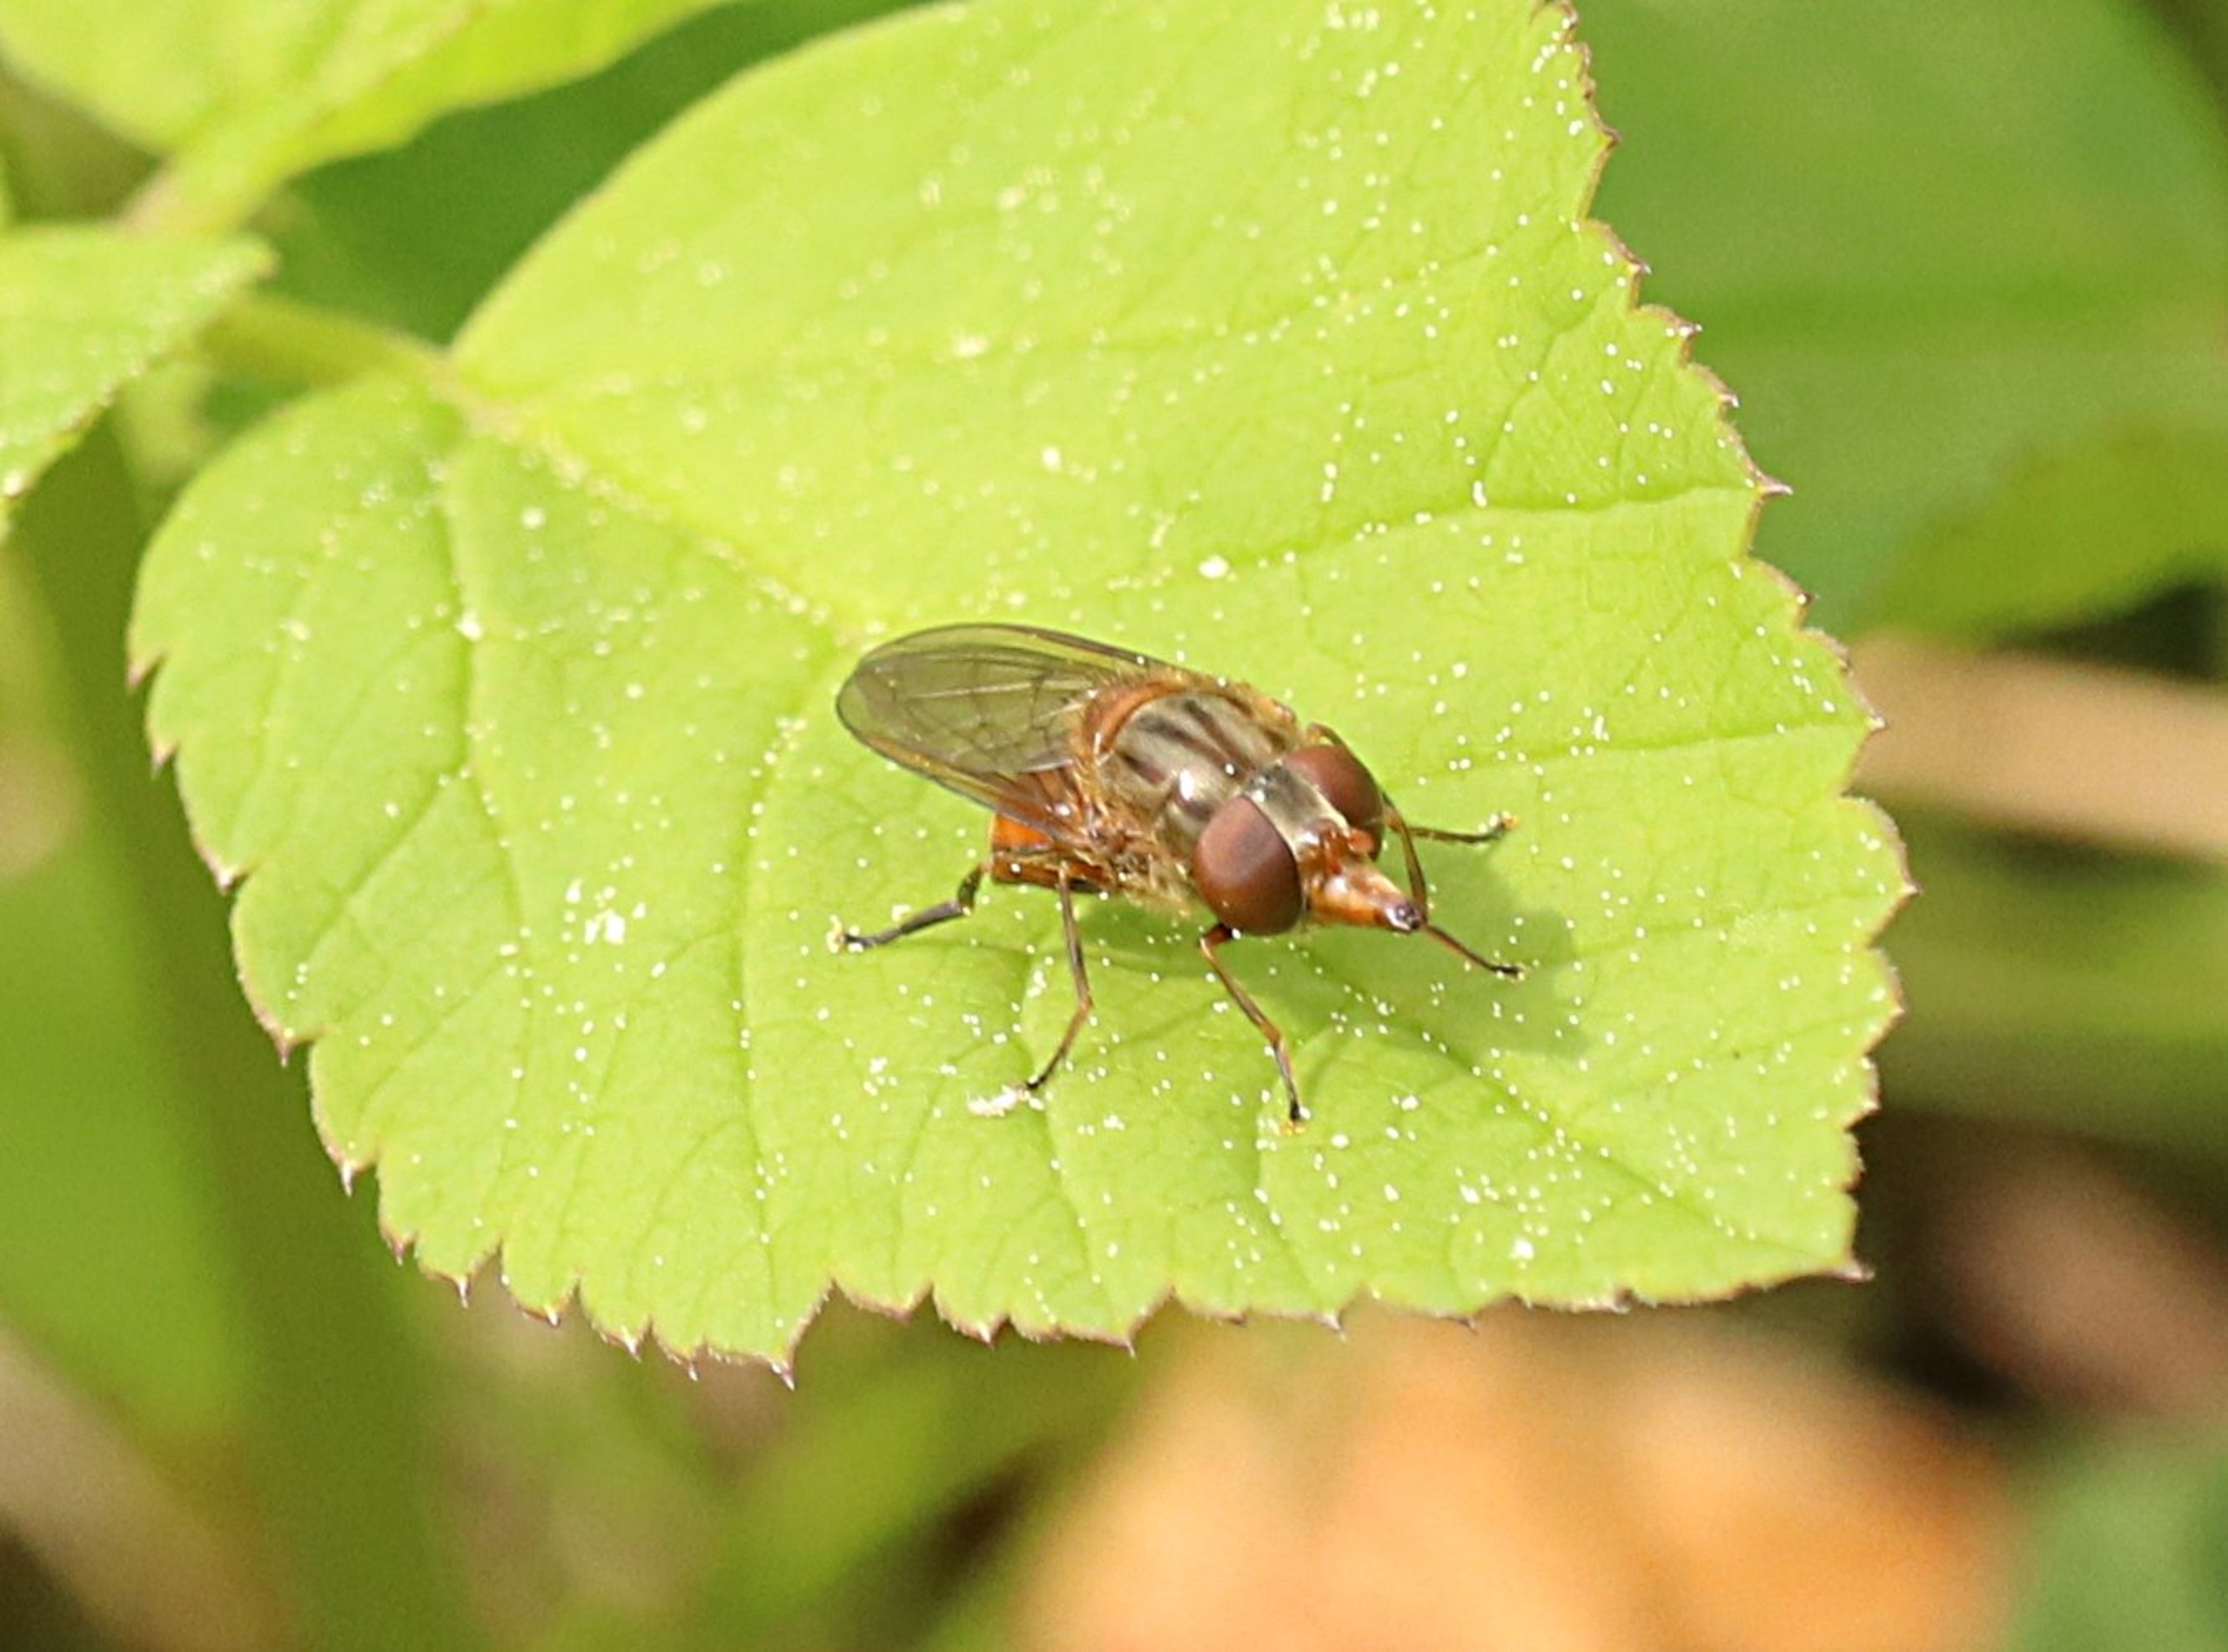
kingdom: Animalia
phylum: Arthropoda
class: Insecta
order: Diptera
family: Syrphidae
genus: Rhingia
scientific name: Rhingia campestris
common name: Mark-snabelsvirreflue
